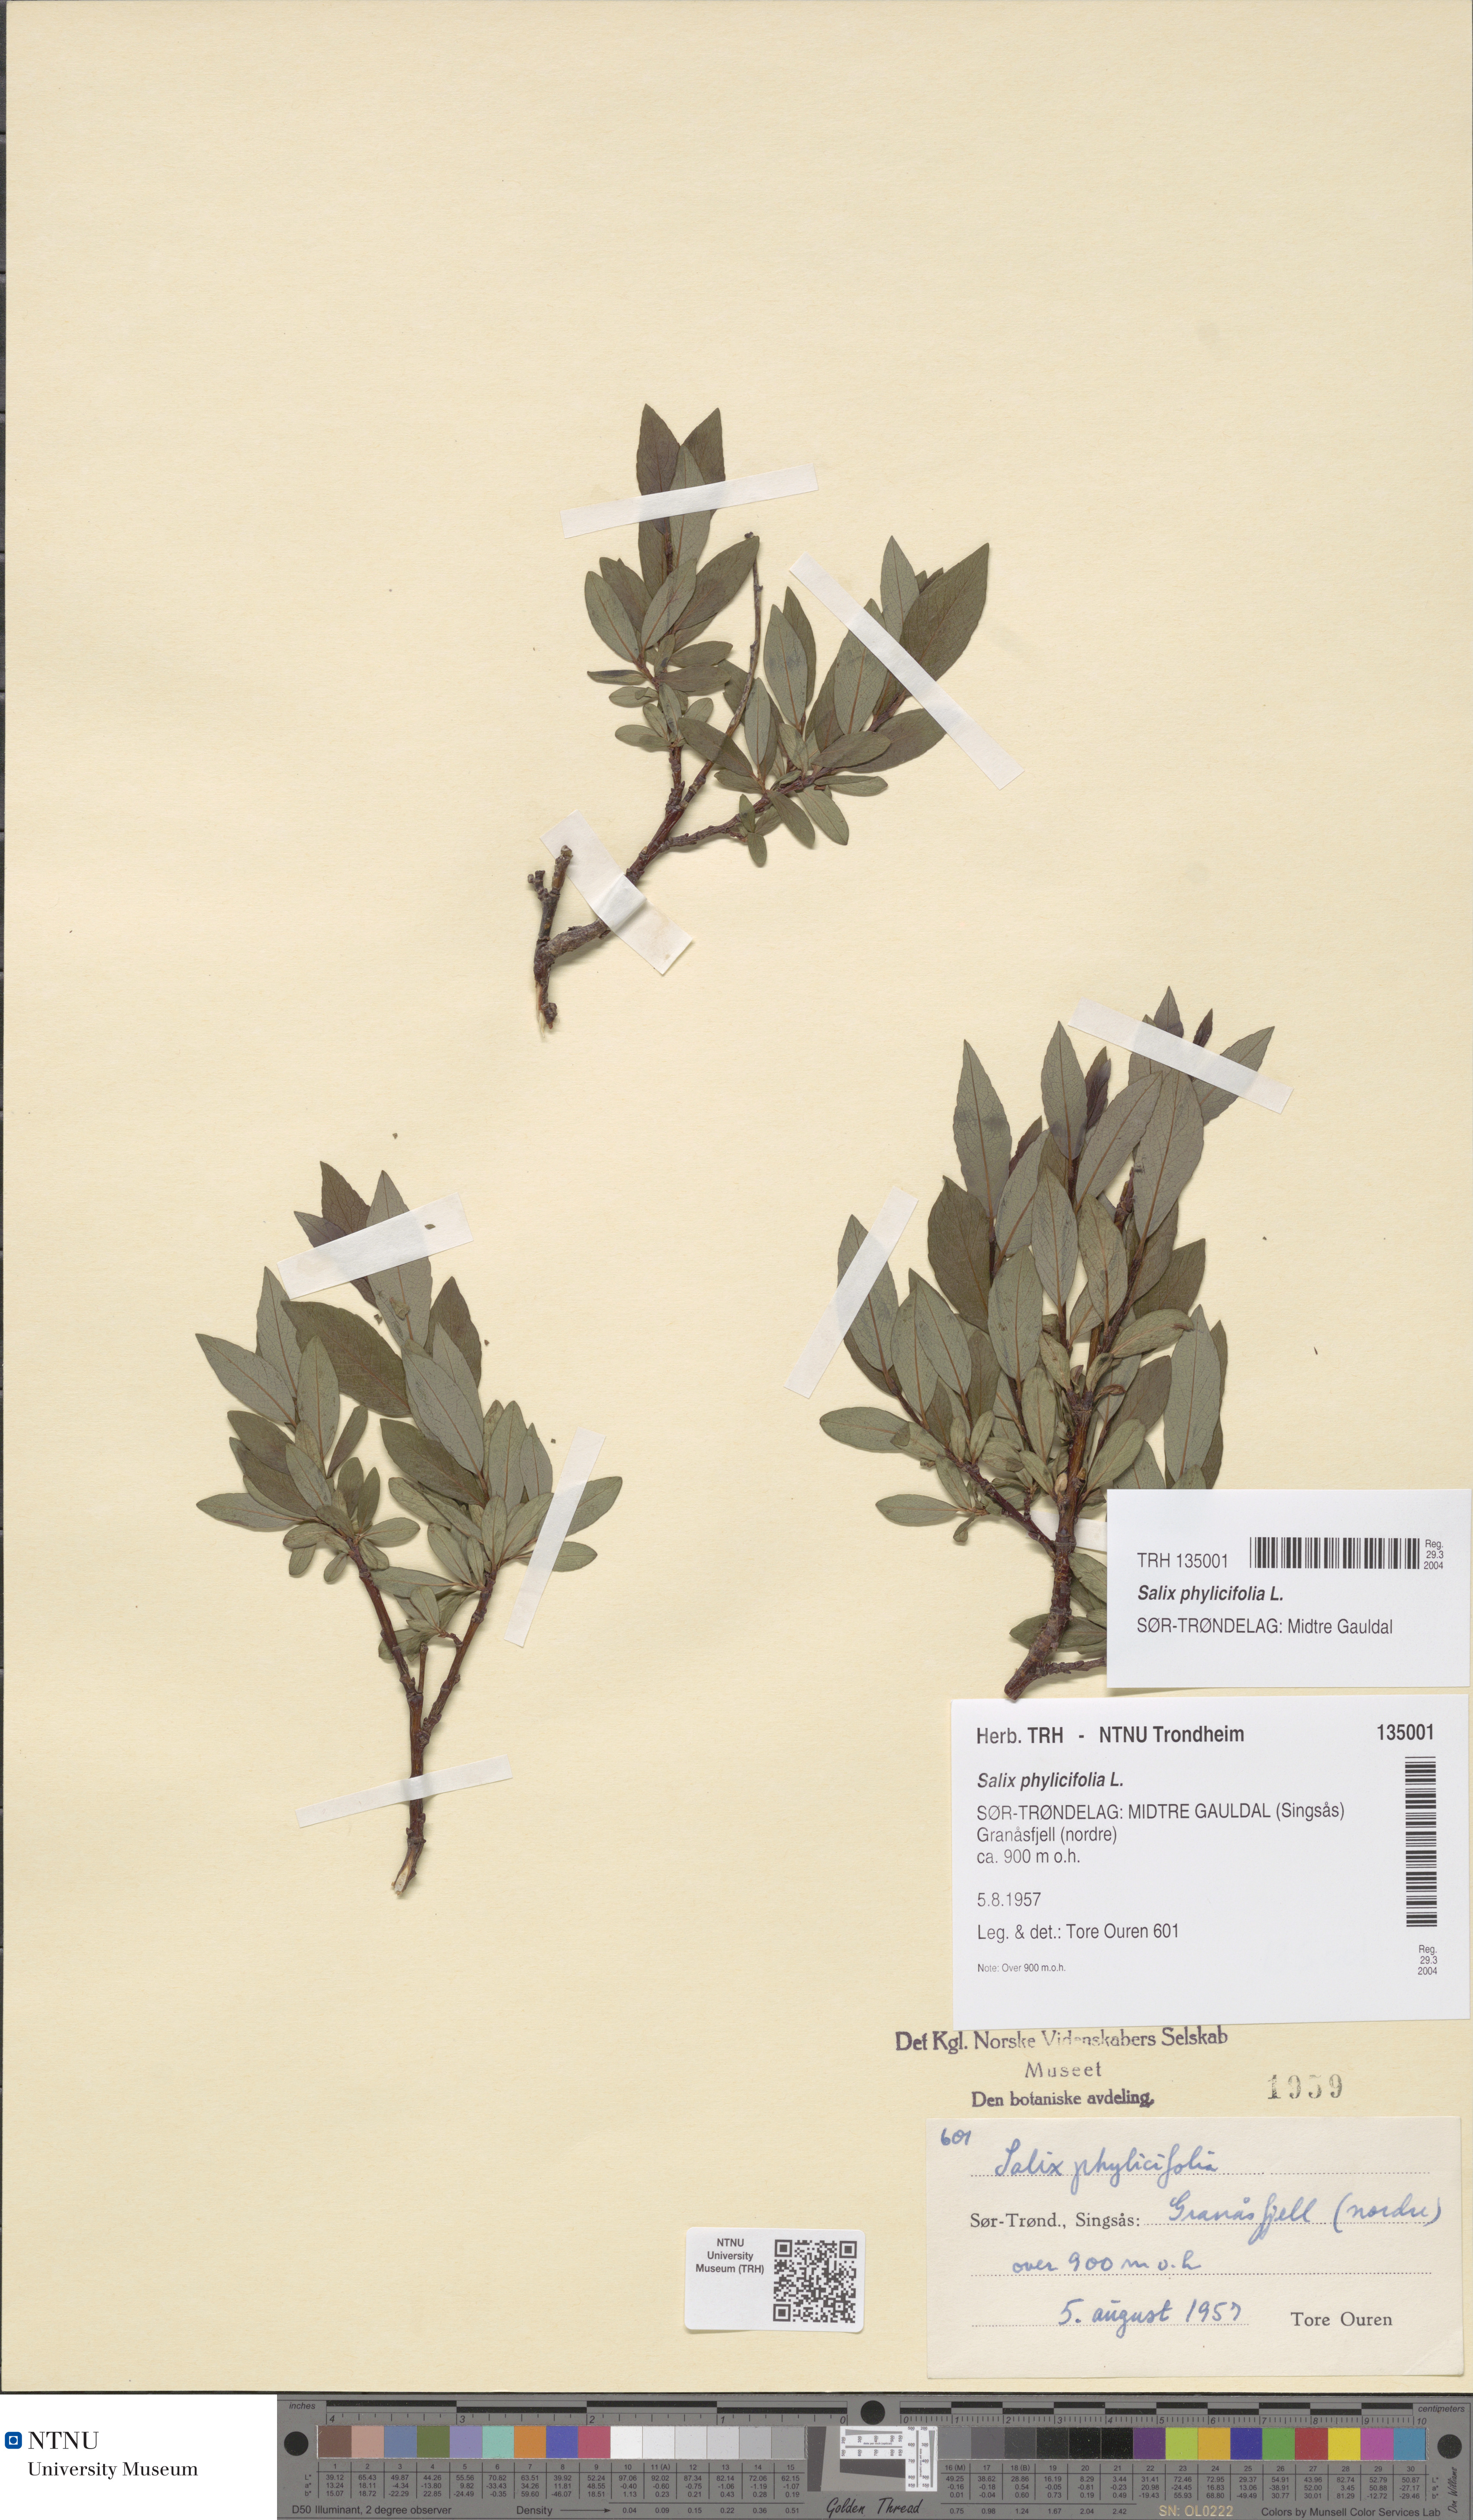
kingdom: Plantae
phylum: Tracheophyta
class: Magnoliopsida
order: Malpighiales
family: Salicaceae
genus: Salix
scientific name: Salix phylicifolia
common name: Tea-leaved willow
